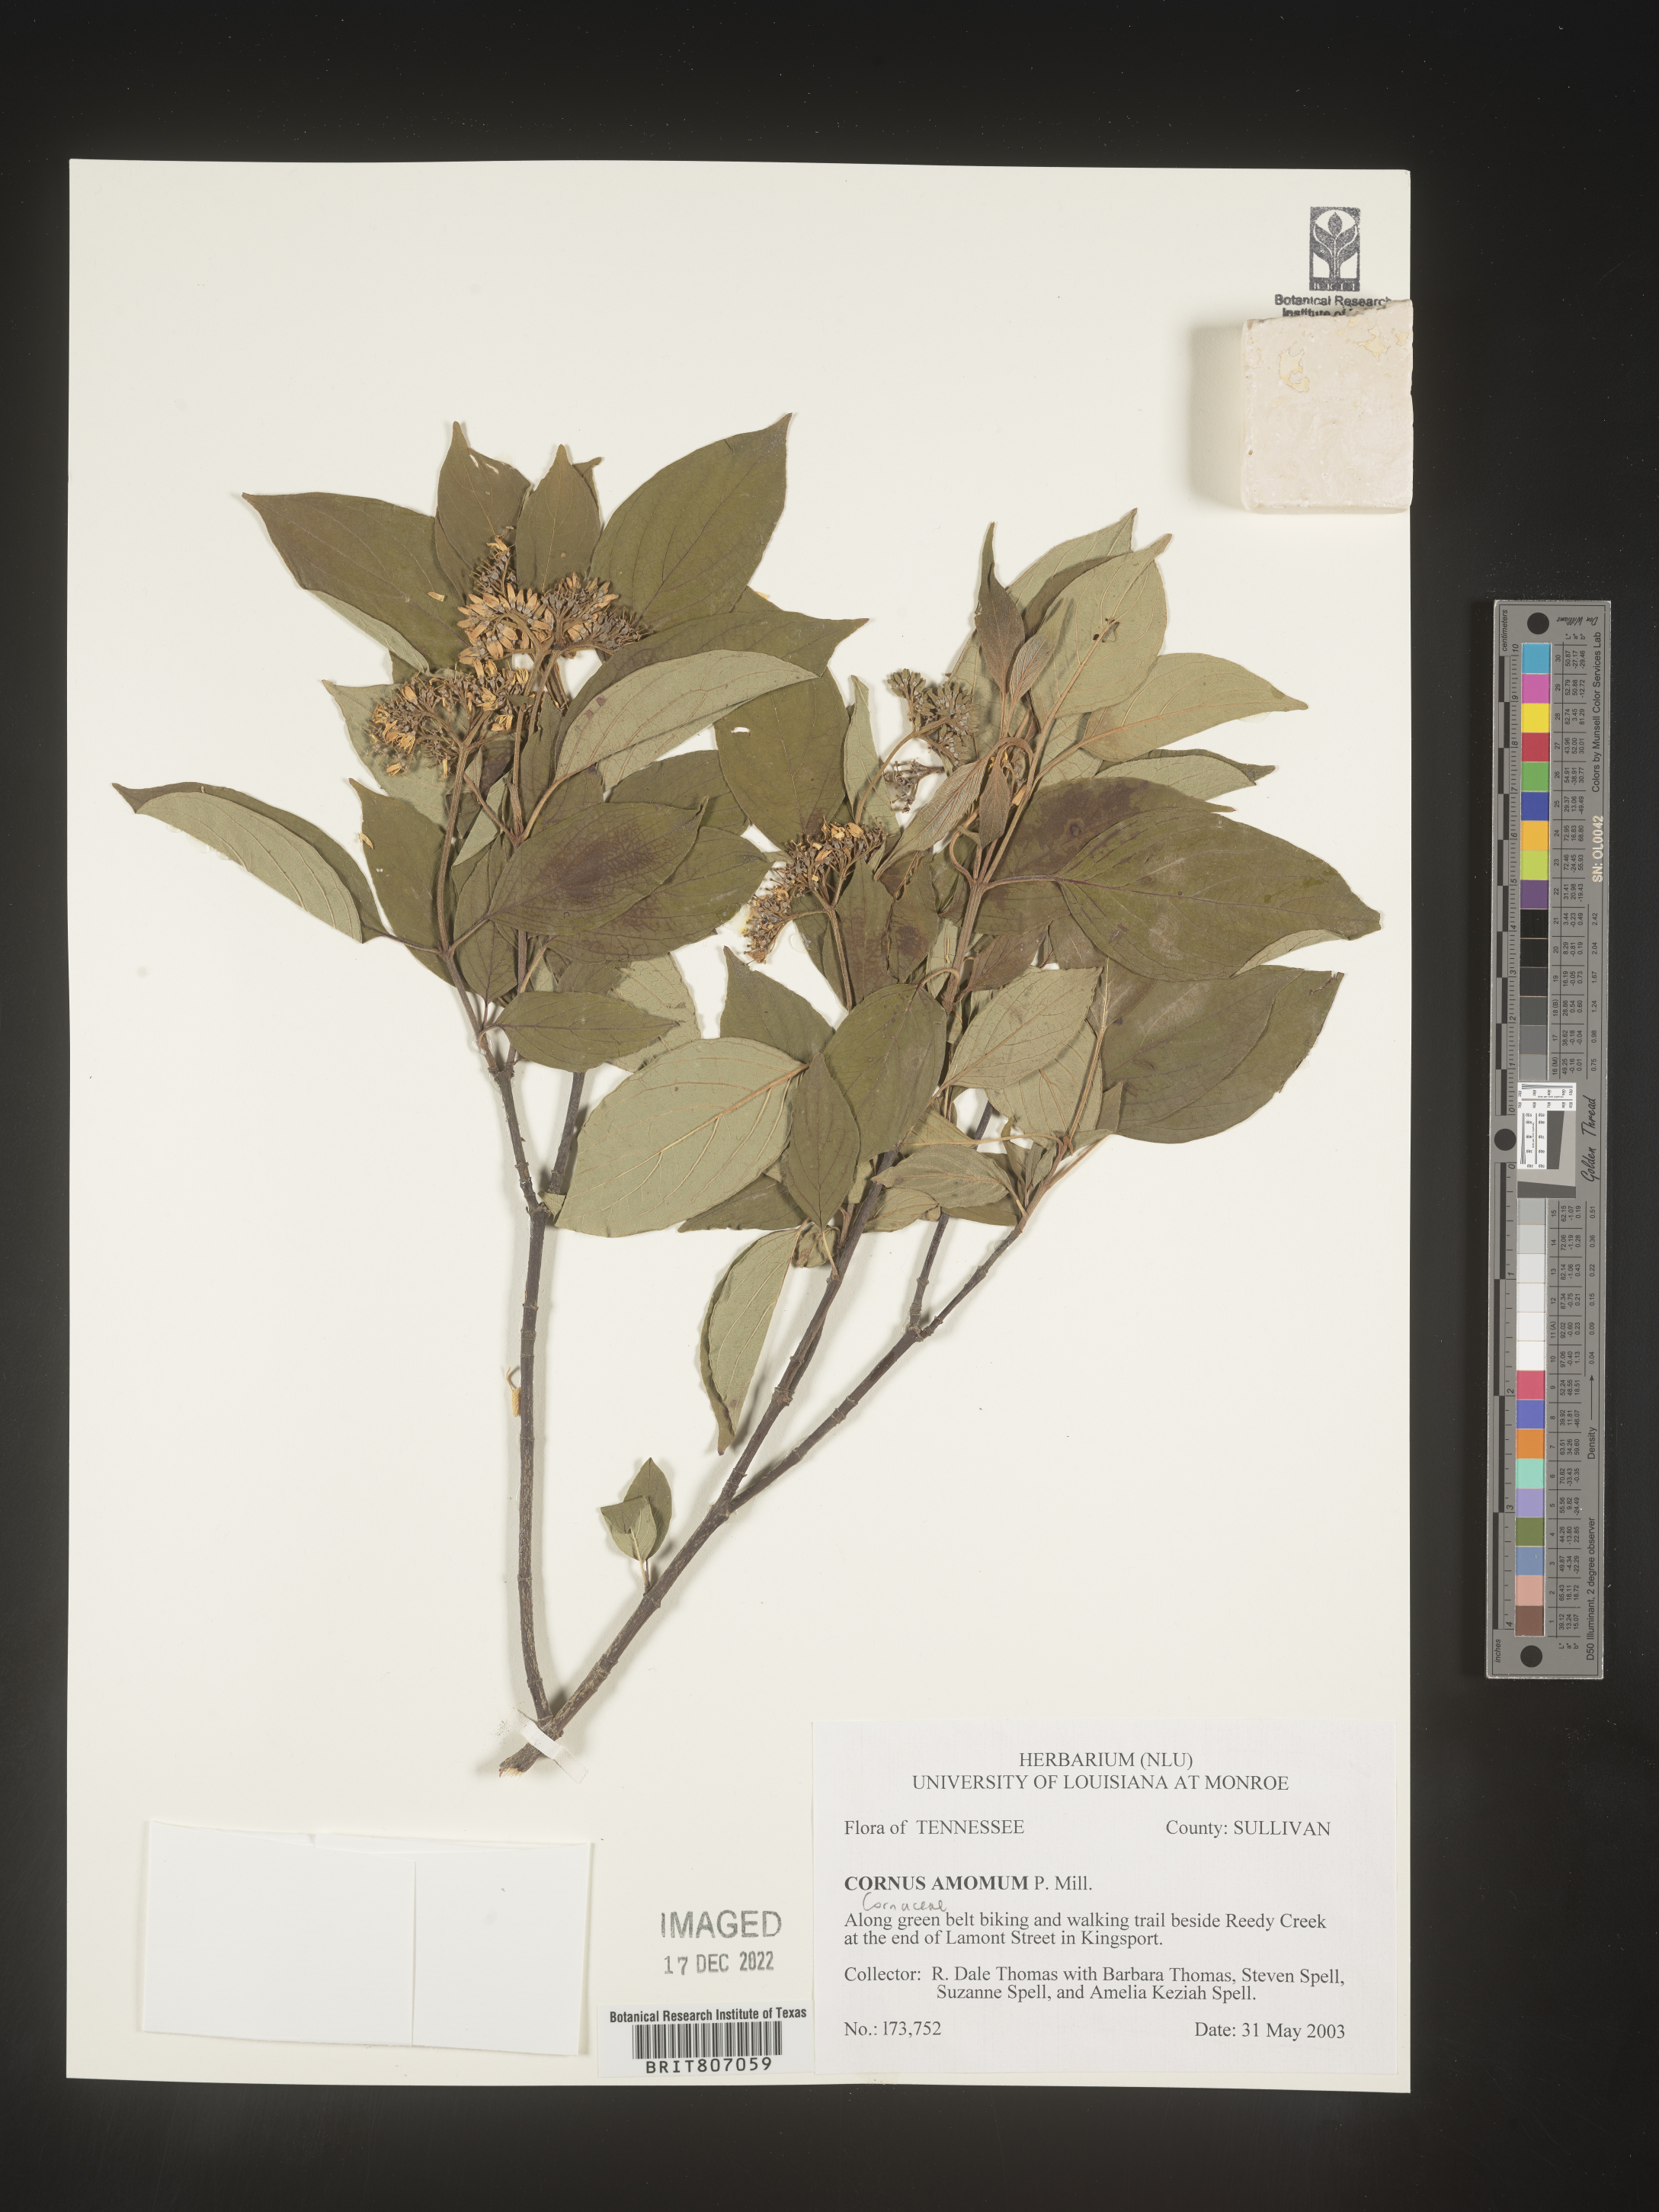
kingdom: Plantae
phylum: Tracheophyta
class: Magnoliopsida
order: Cornales
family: Cornaceae
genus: Cornus
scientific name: Cornus amomum
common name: Silky dogwood
